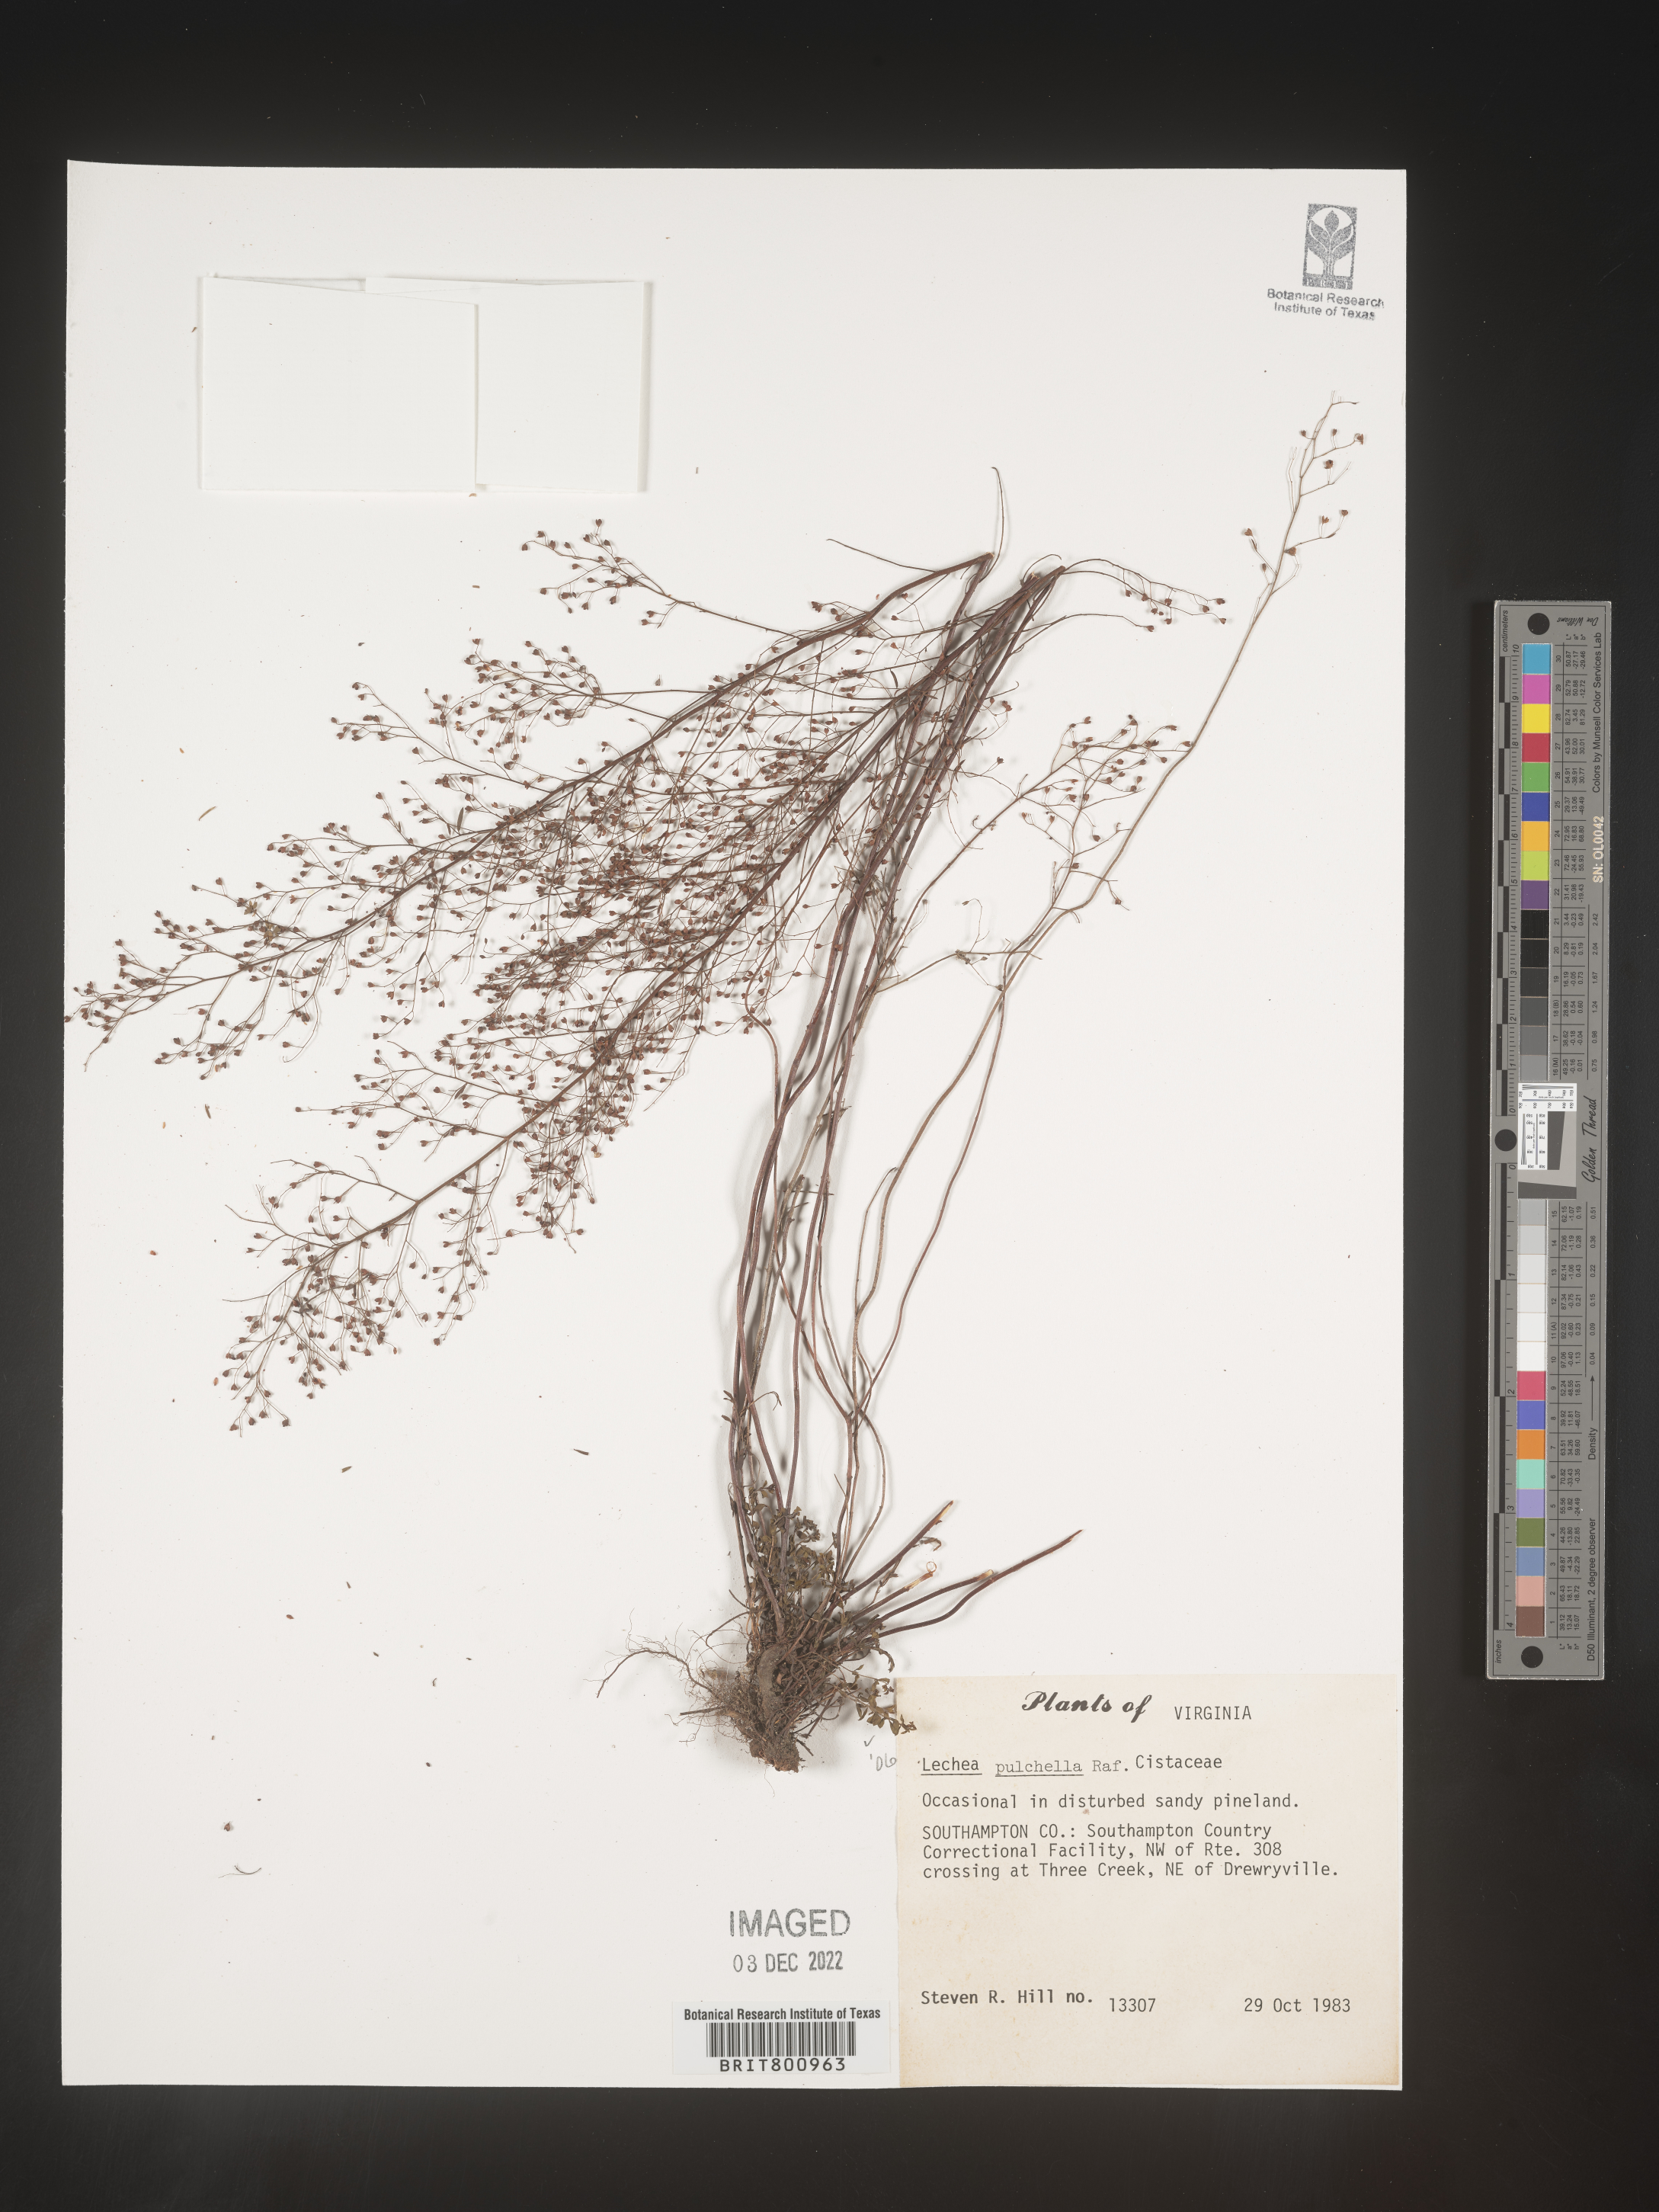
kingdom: Plantae
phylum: Tracheophyta
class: Magnoliopsida
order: Malvales
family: Cistaceae
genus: Lechea
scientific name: Lechea pulchella
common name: Leggett's pinweed
